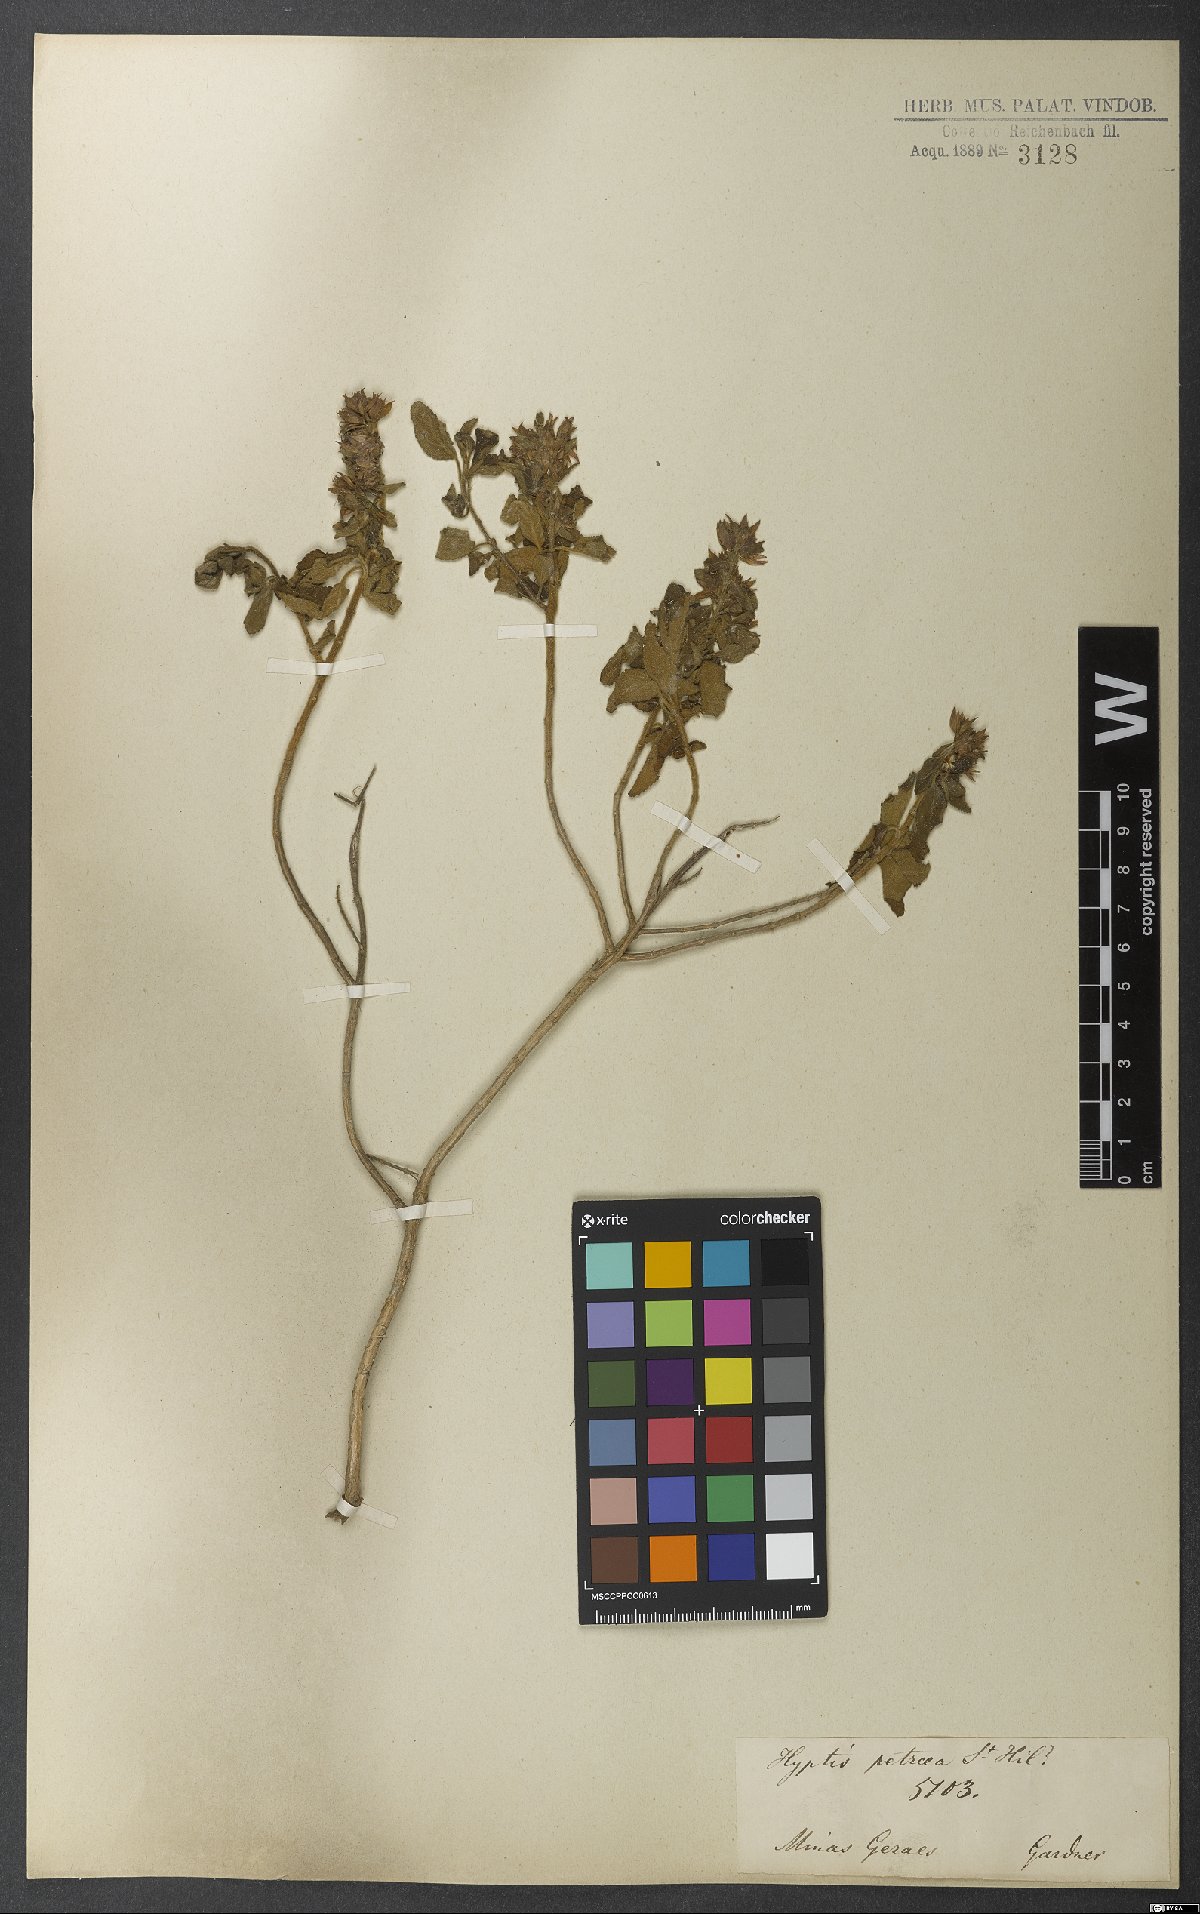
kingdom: Plantae
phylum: Tracheophyta
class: Magnoliopsida
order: Lamiales
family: Lamiaceae
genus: Oocephalus
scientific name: Oocephalus petraeus
